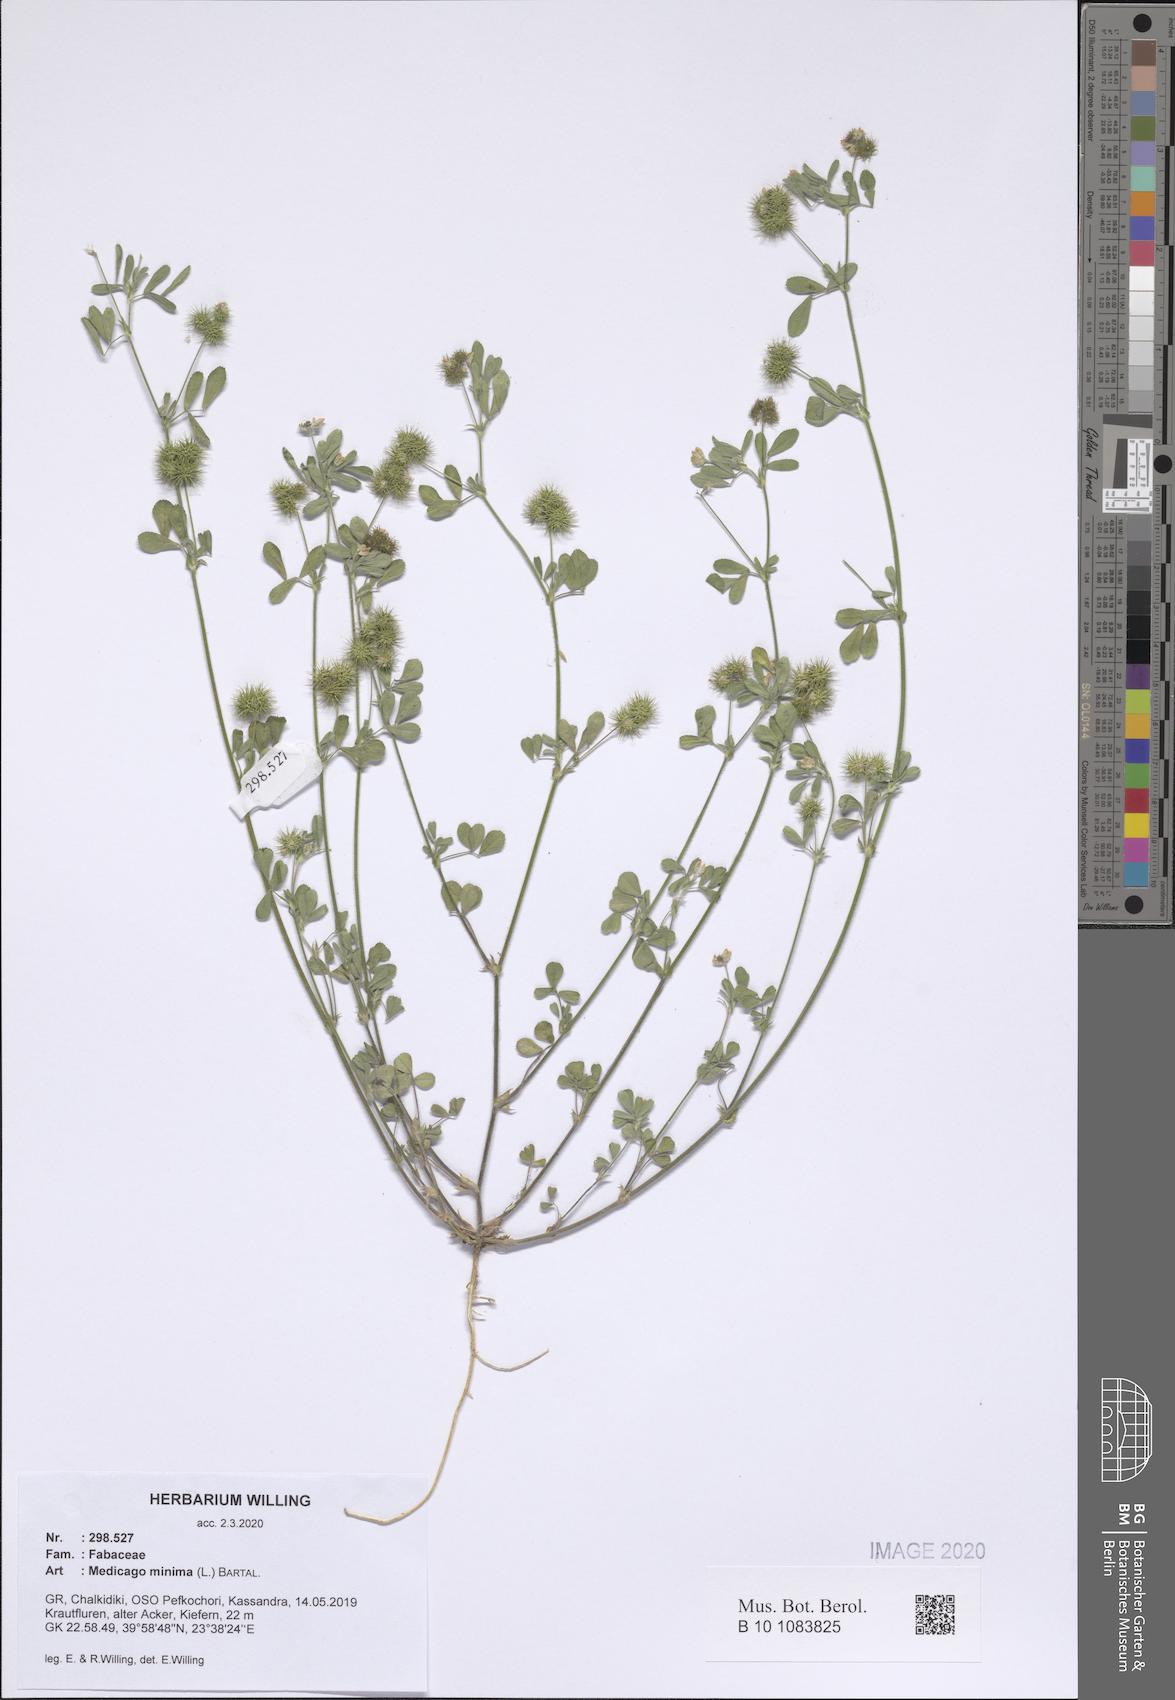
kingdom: Plantae
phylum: Tracheophyta
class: Magnoliopsida
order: Fabales
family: Fabaceae
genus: Medicago
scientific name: Medicago minima
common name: Little bur-clover
